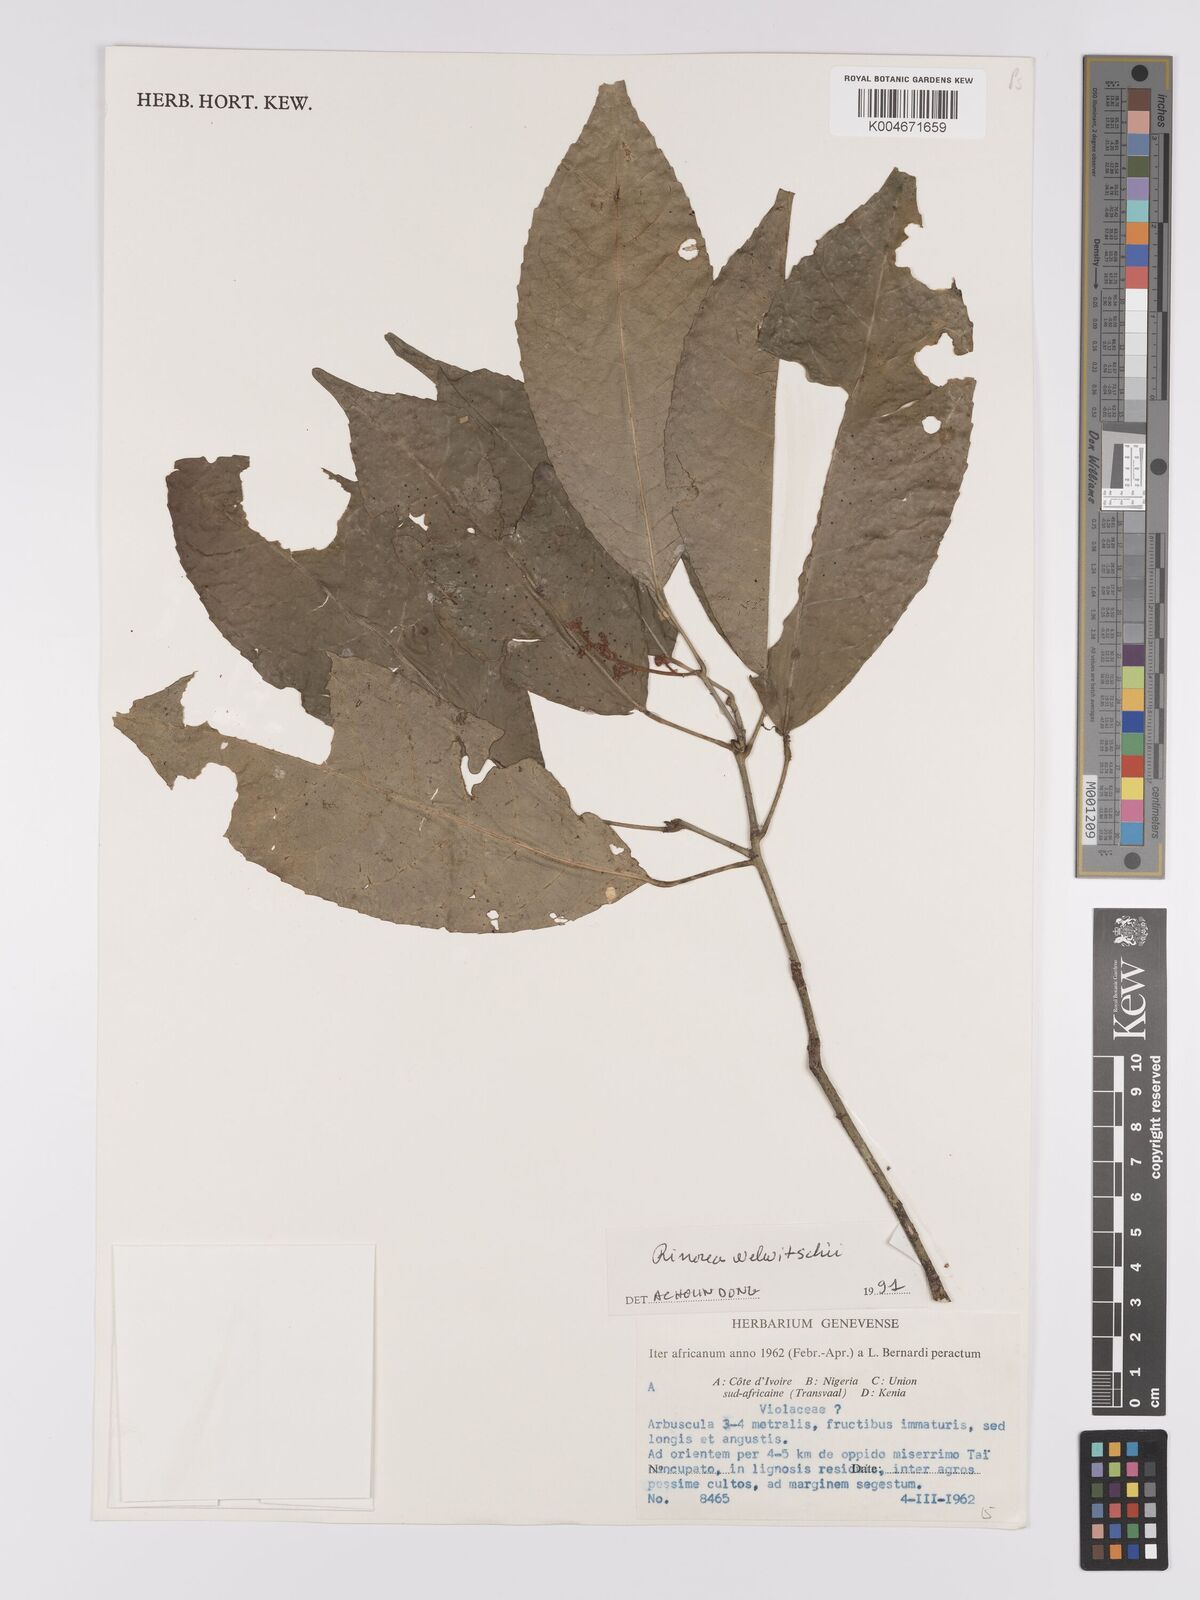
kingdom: Plantae
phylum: Tracheophyta
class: Magnoliopsida
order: Malpighiales
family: Violaceae
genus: Rinorea
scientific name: Rinorea welwitschii
